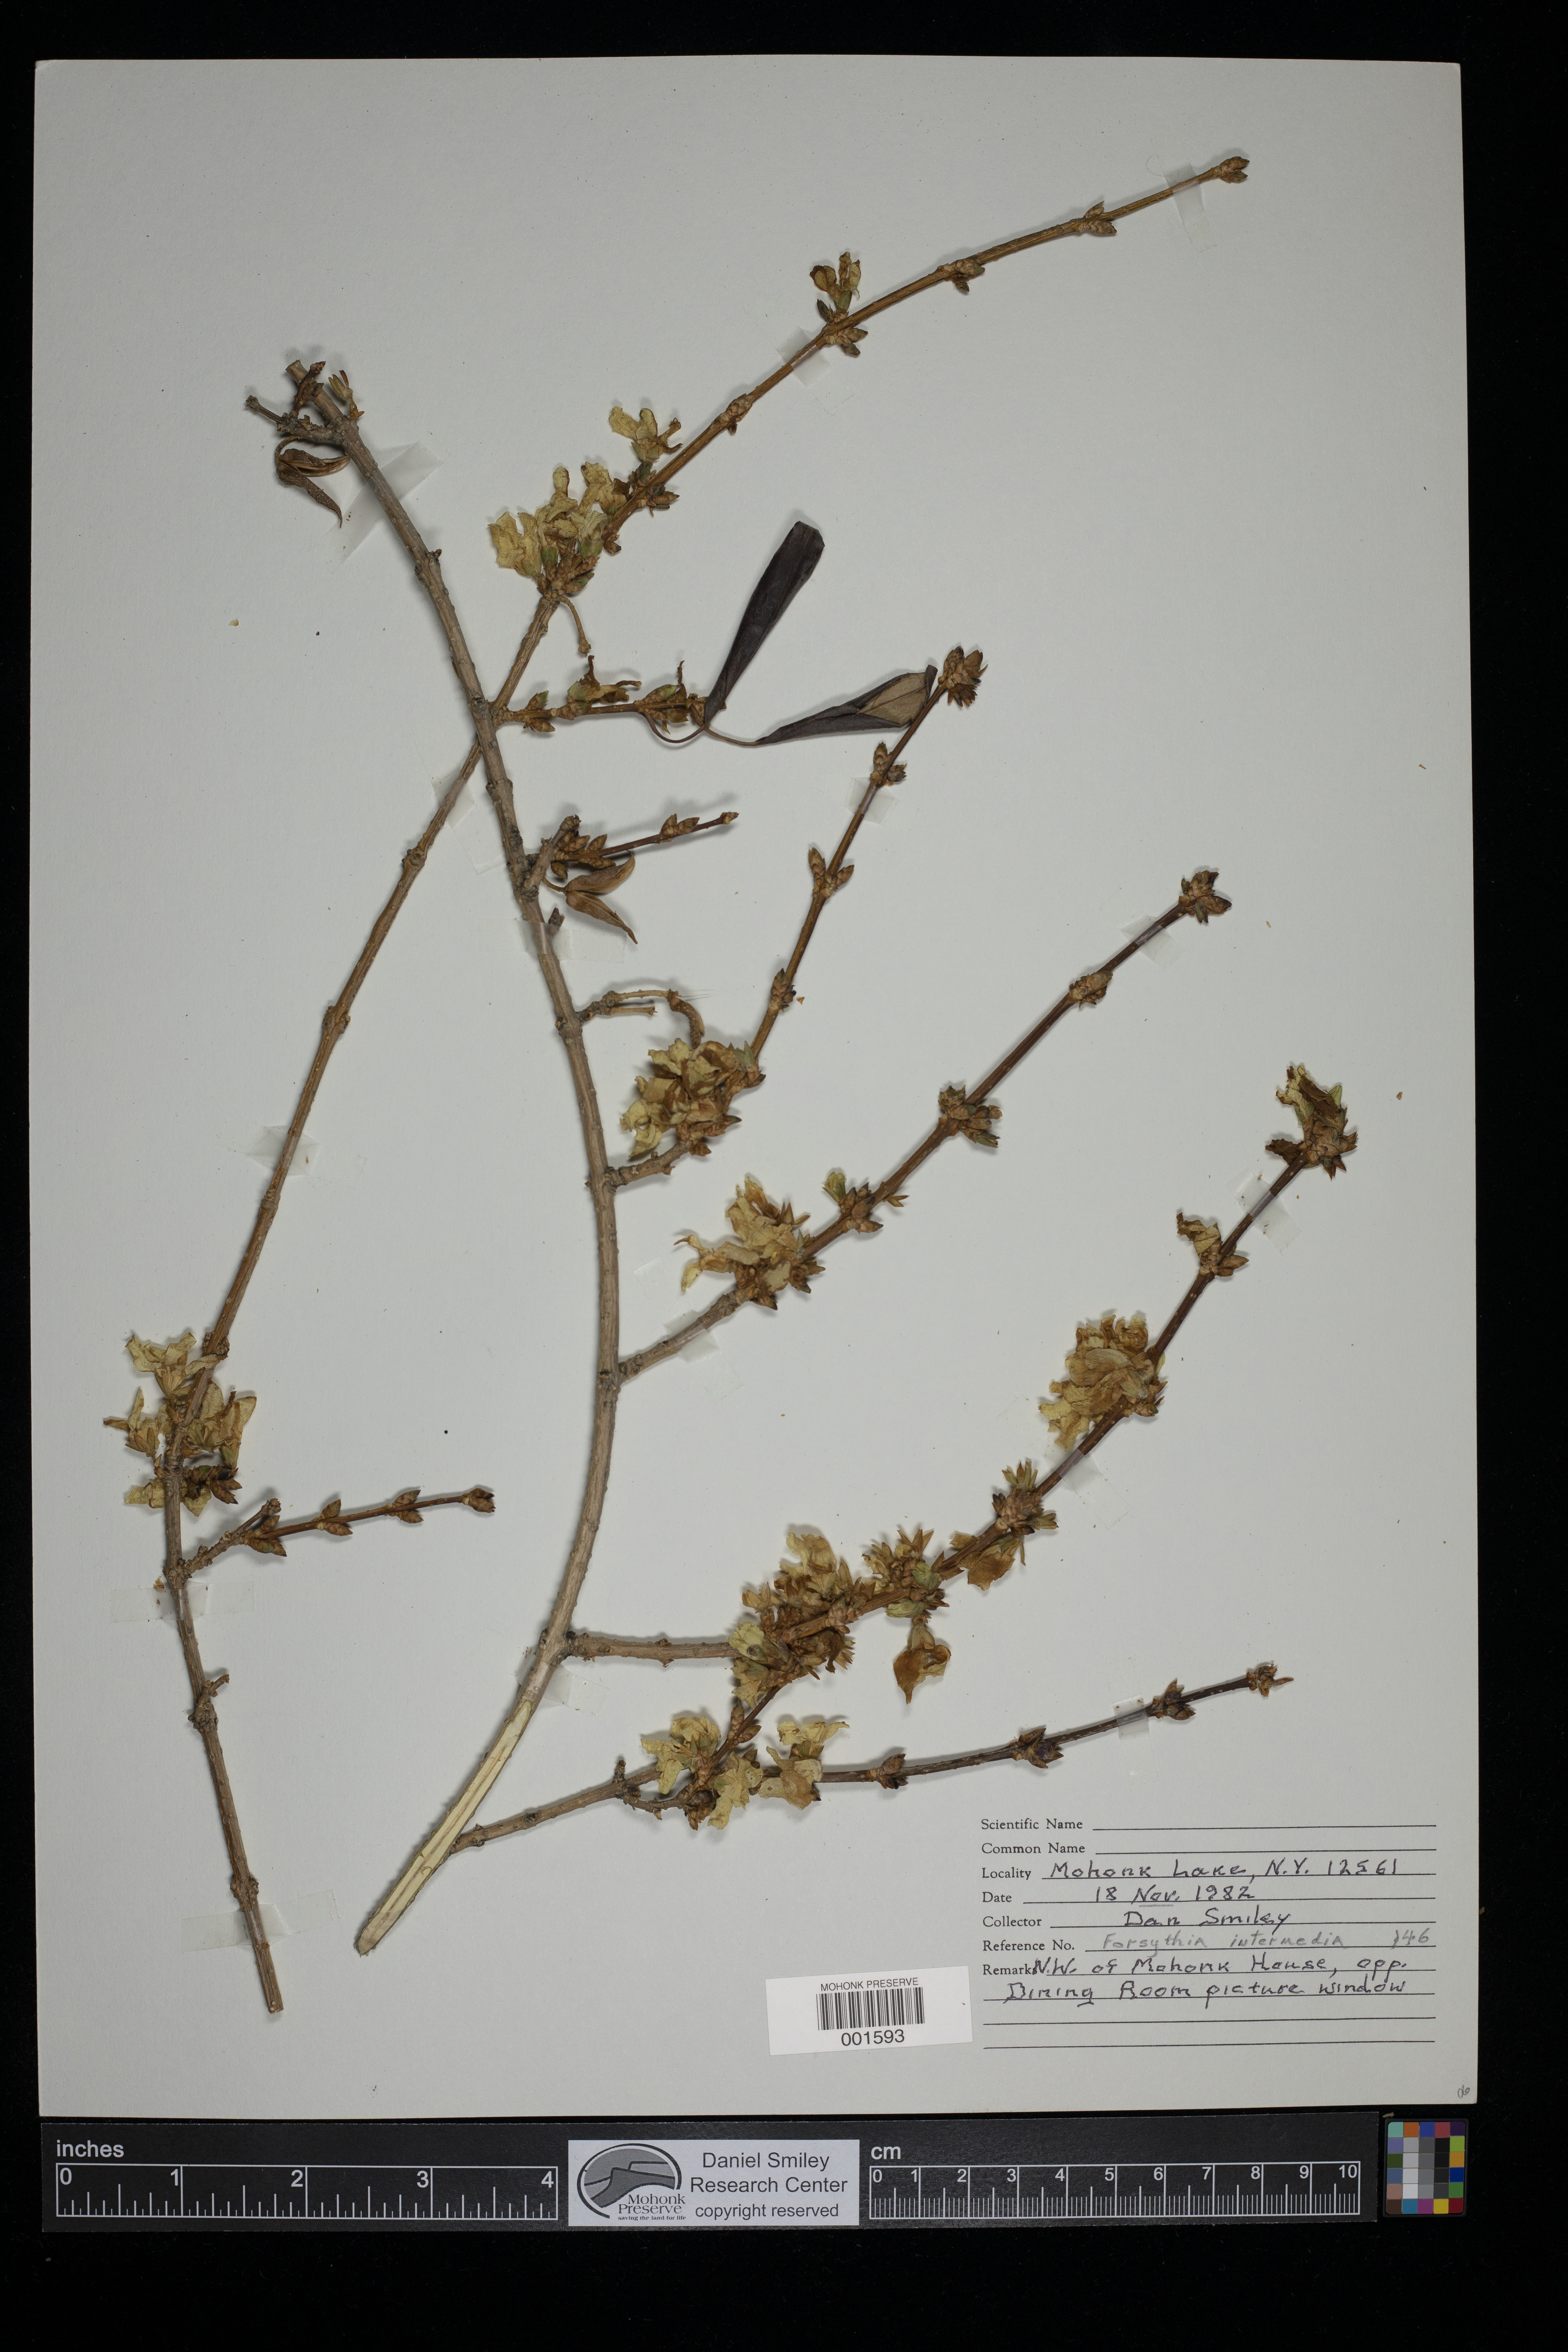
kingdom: Plantae
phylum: Tracheophyta
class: Magnoliopsida
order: Lamiales
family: Oleaceae
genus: Forsythia
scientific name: Forsythia intermedia
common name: Forsythia
